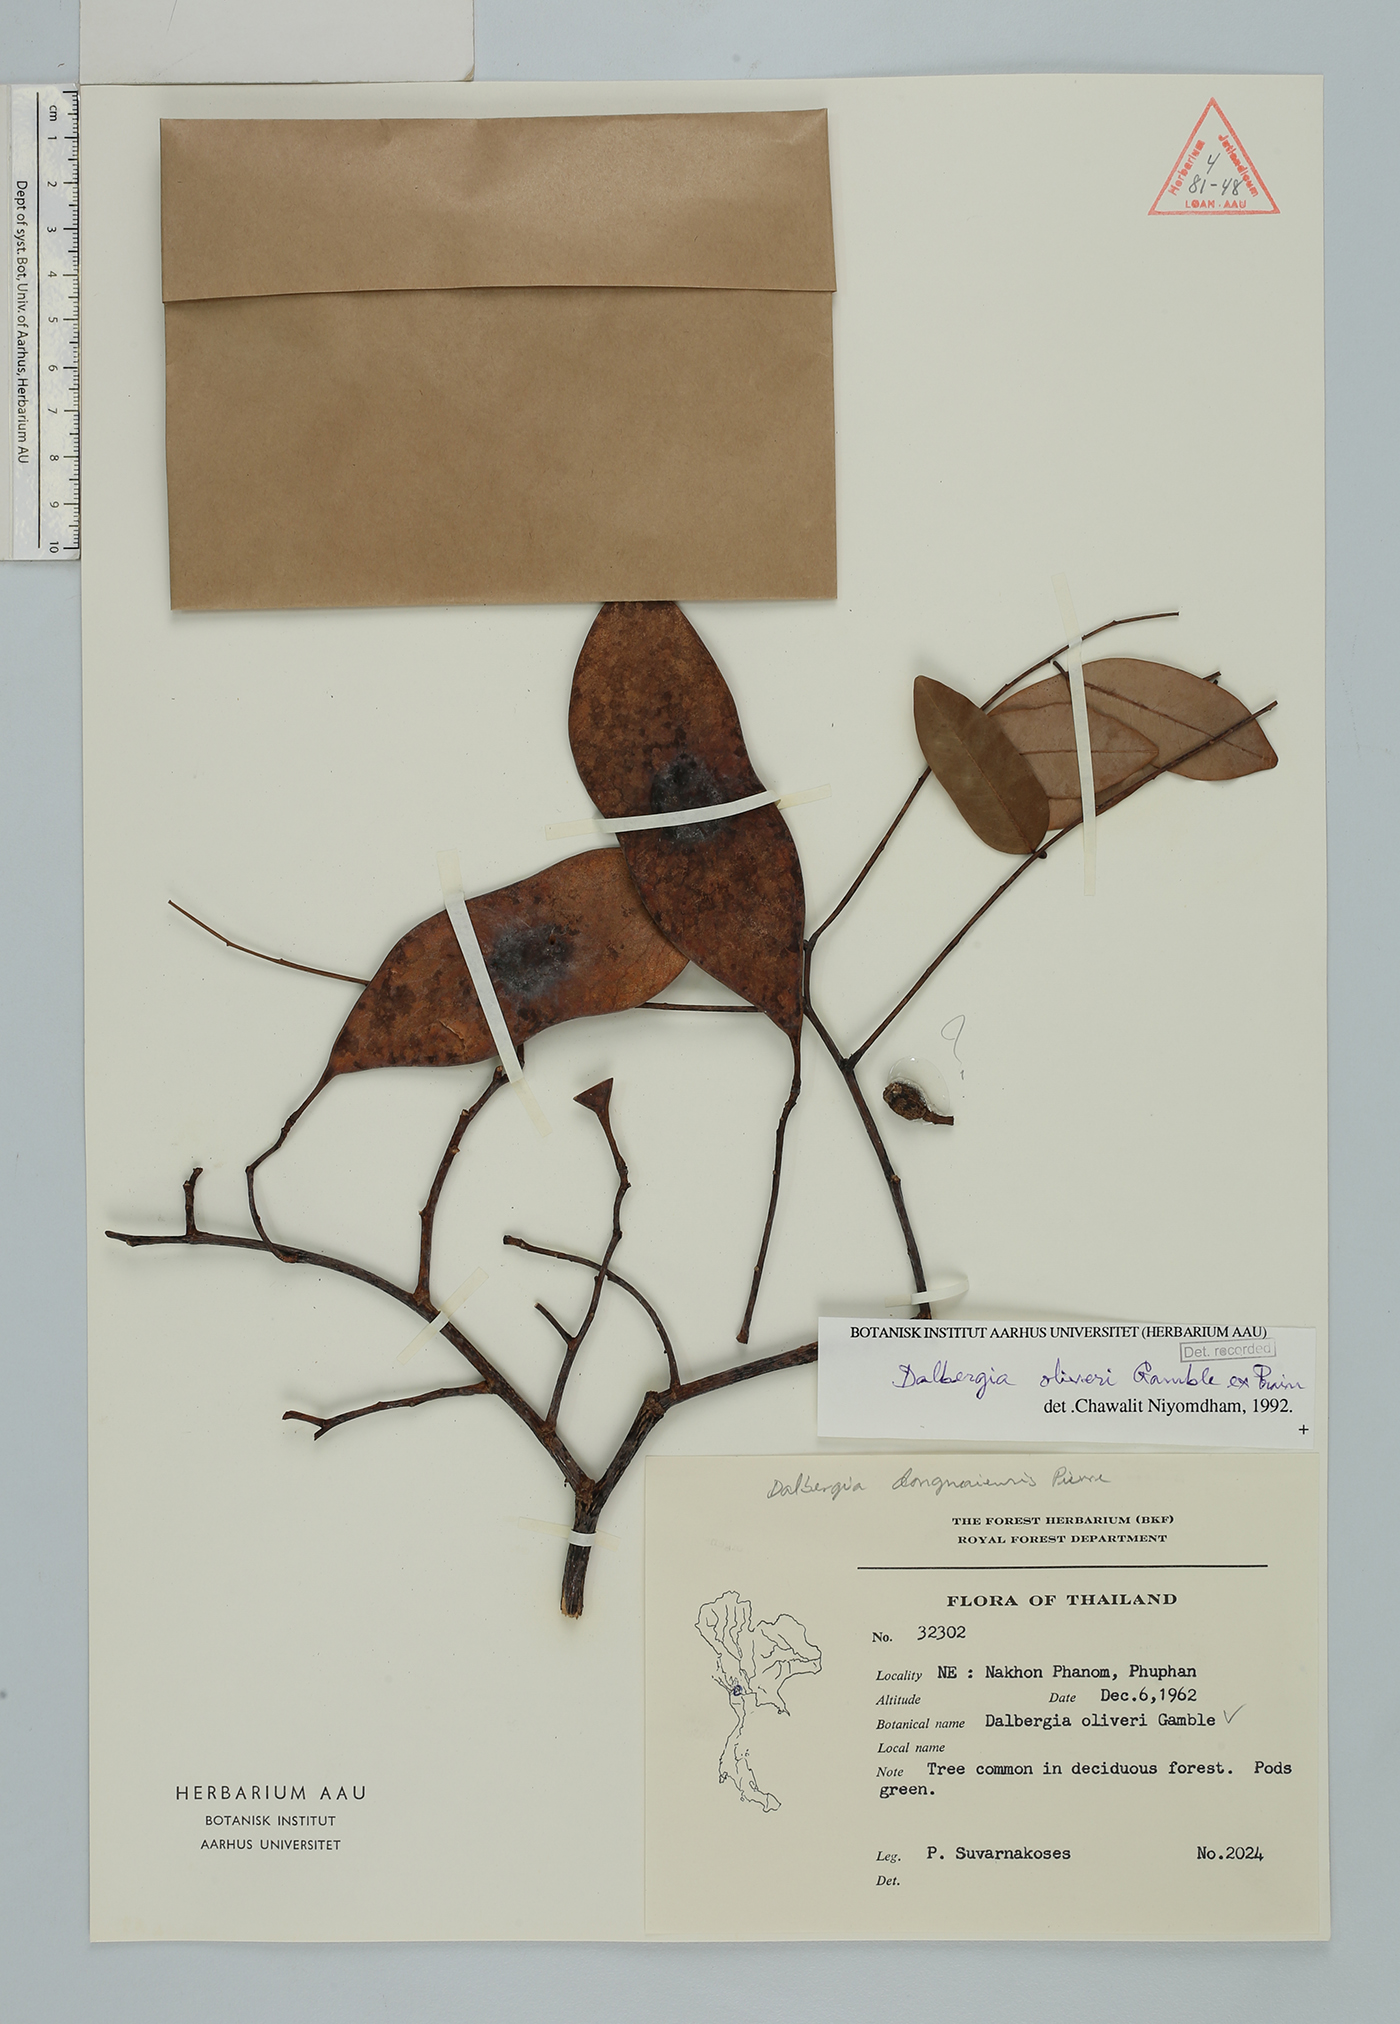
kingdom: Plantae
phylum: Tracheophyta
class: Magnoliopsida
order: Fabales
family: Fabaceae
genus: Dalbergia
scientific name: Dalbergia oliveri
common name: Burmese rosewood
